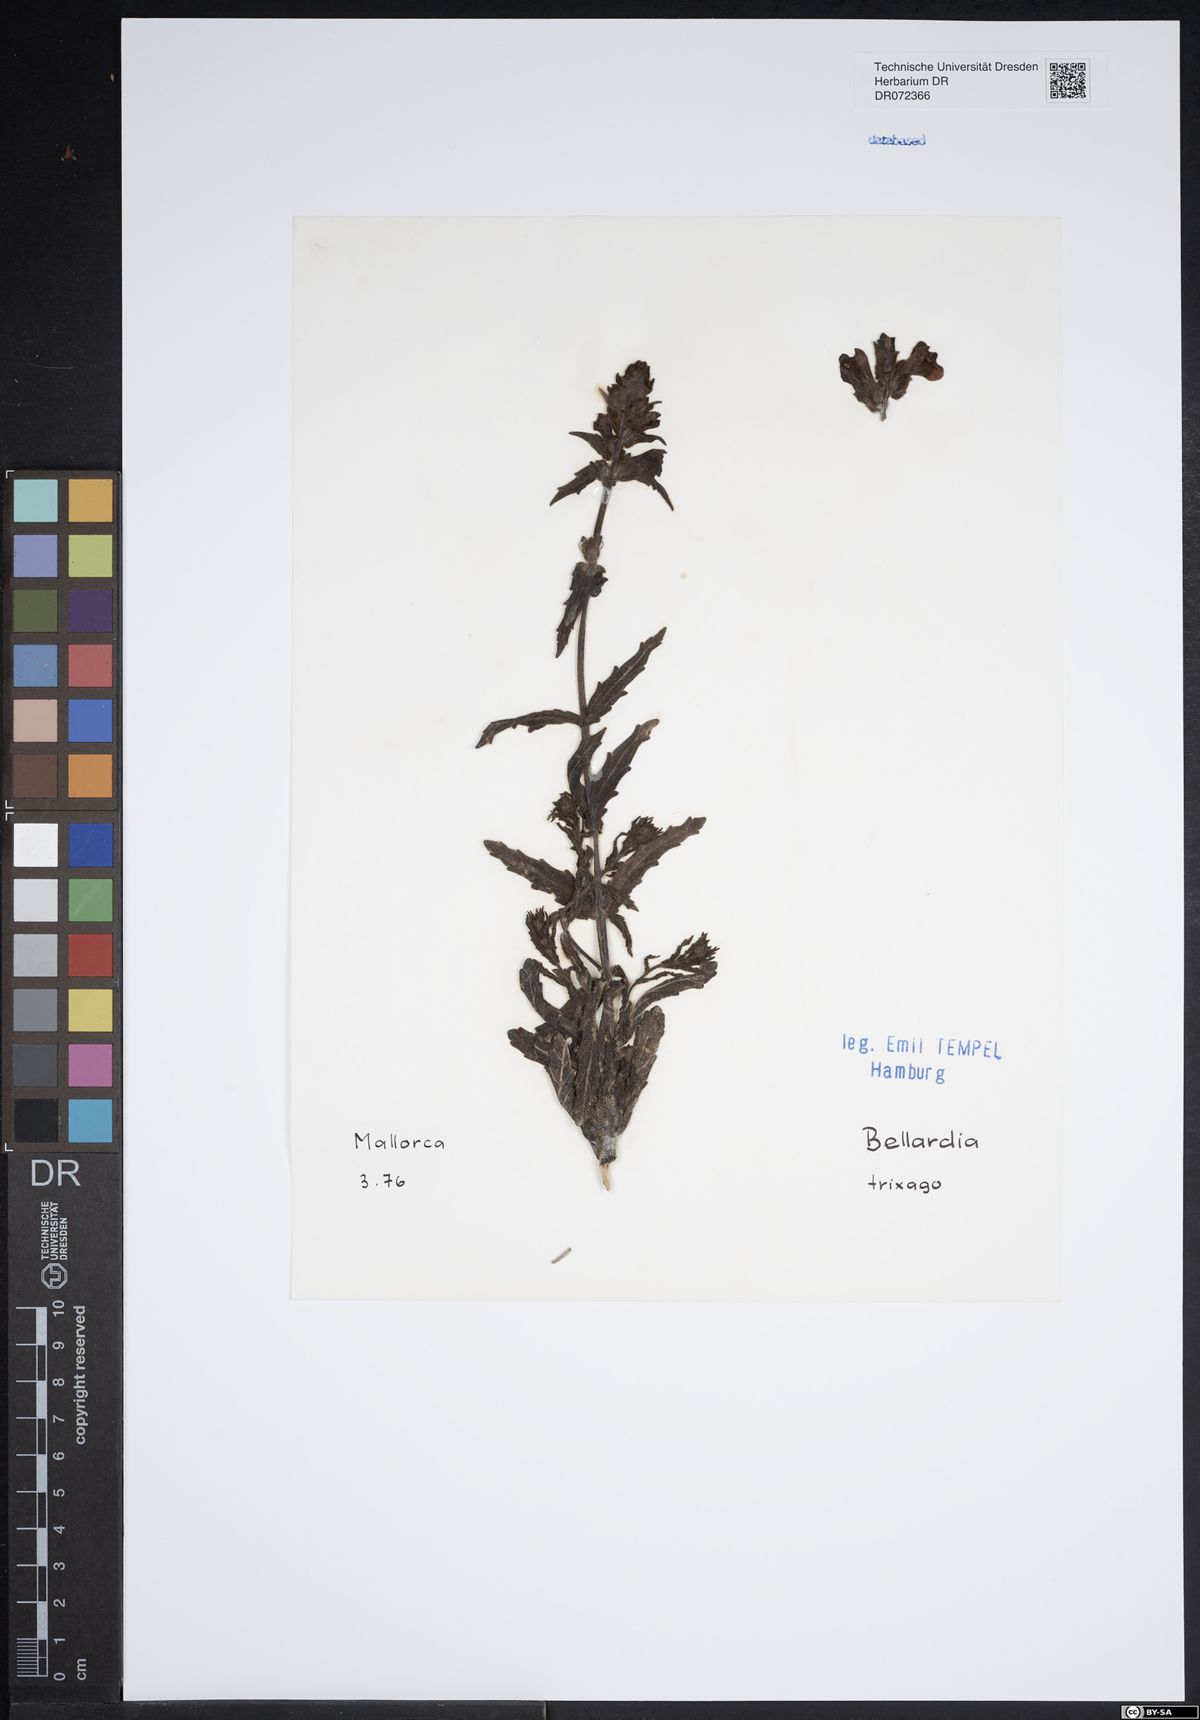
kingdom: Plantae
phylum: Tracheophyta
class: Magnoliopsida
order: Lamiales
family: Orobanchaceae
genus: Bellardia
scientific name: Bellardia trixago
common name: Mediterranean lineseed
